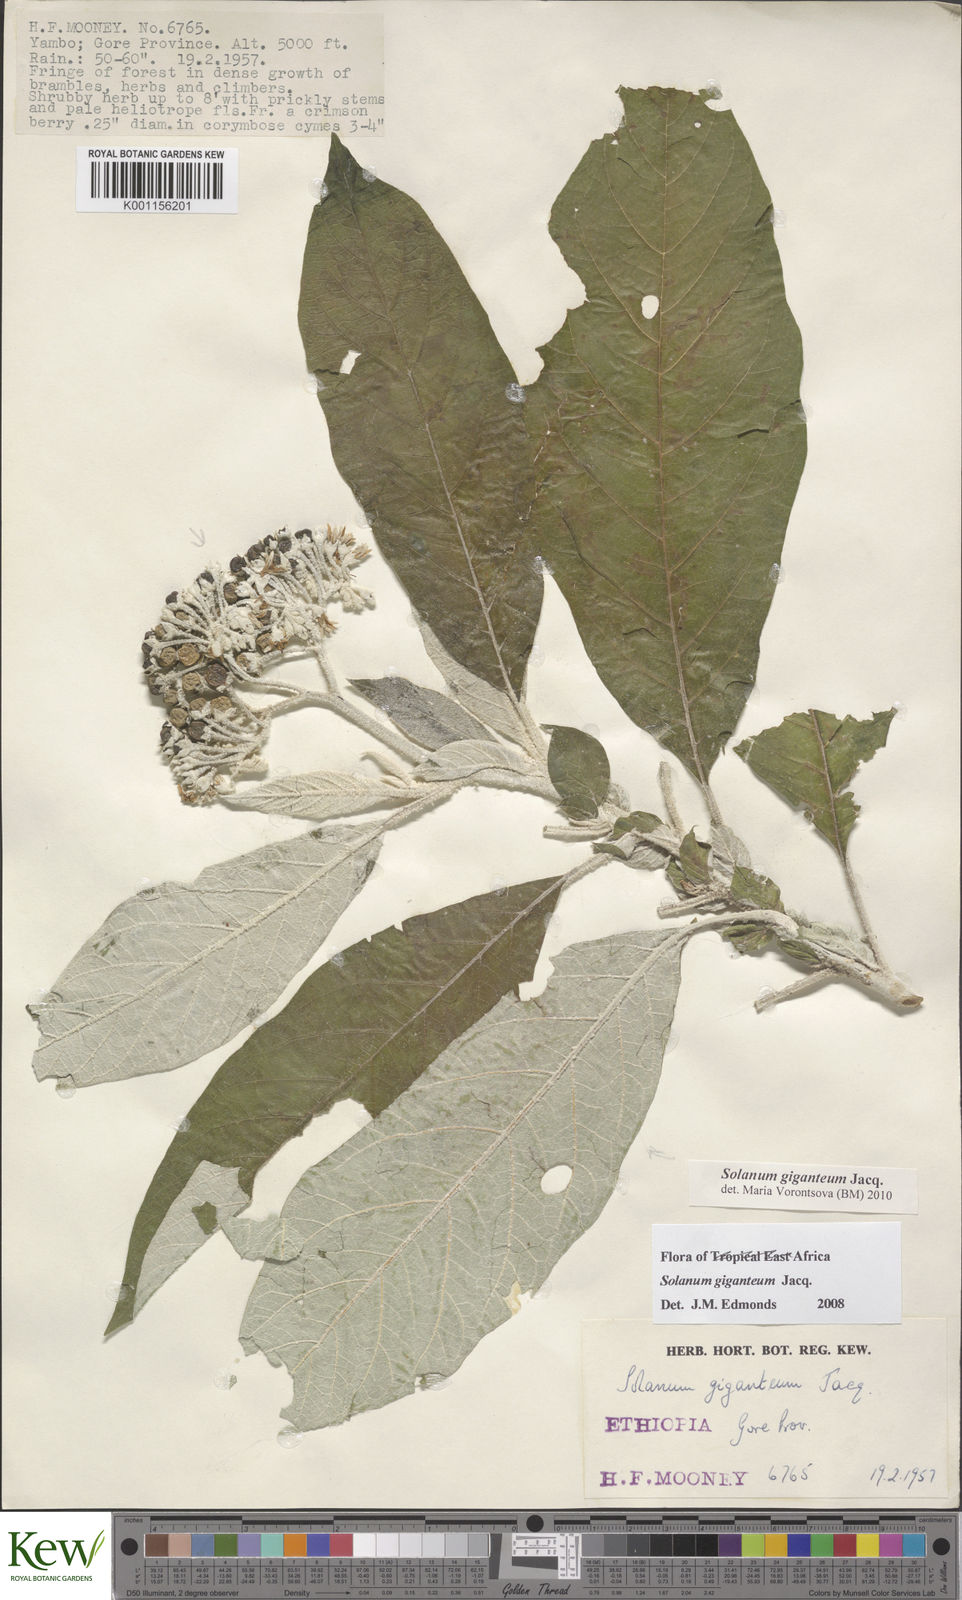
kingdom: Plantae
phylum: Tracheophyta
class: Magnoliopsida
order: Solanales
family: Solanaceae
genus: Solanum
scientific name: Solanum giganteum
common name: Healing-leaf-tree
